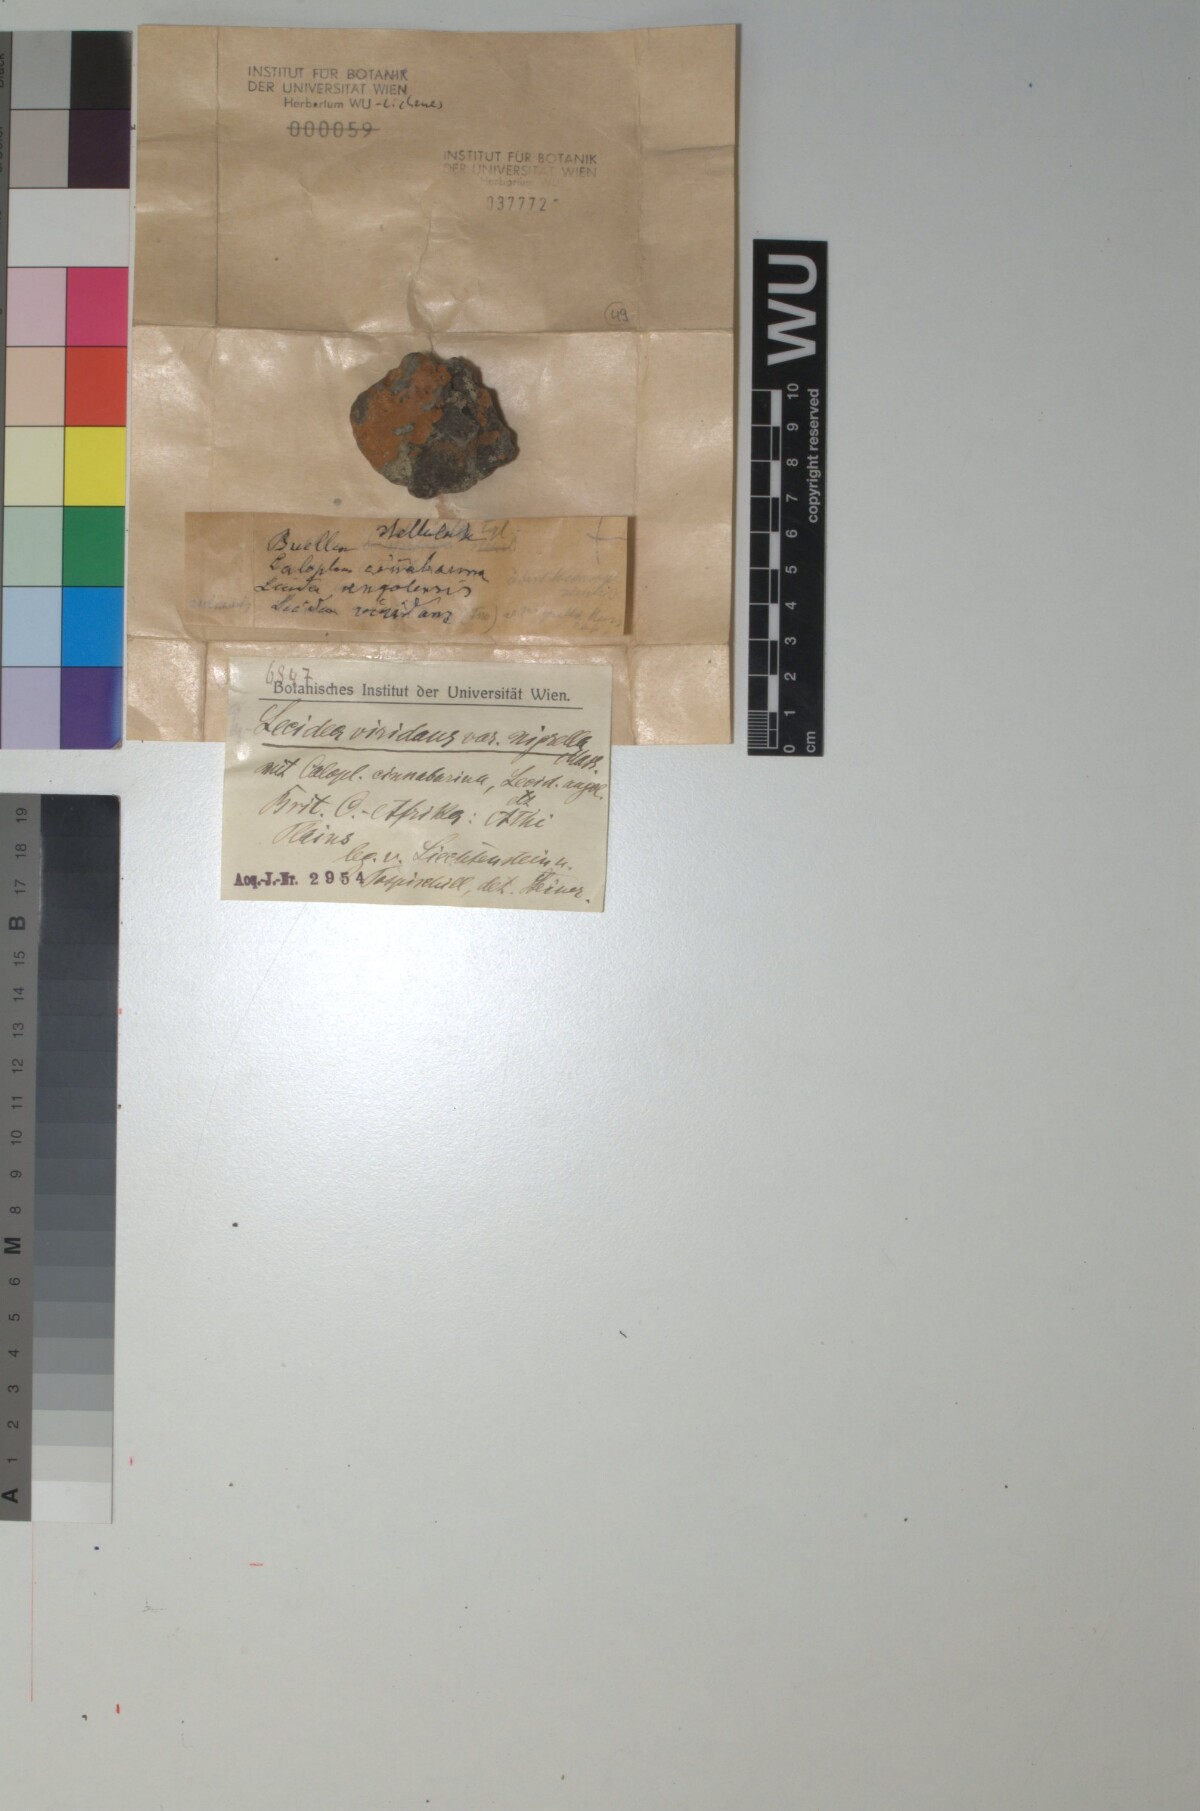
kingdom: Fungi
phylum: Ascomycota
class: Lecanoromycetes
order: Lecanorales
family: Lecanoraceae
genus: Lecidella
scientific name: Lecidella viridans
